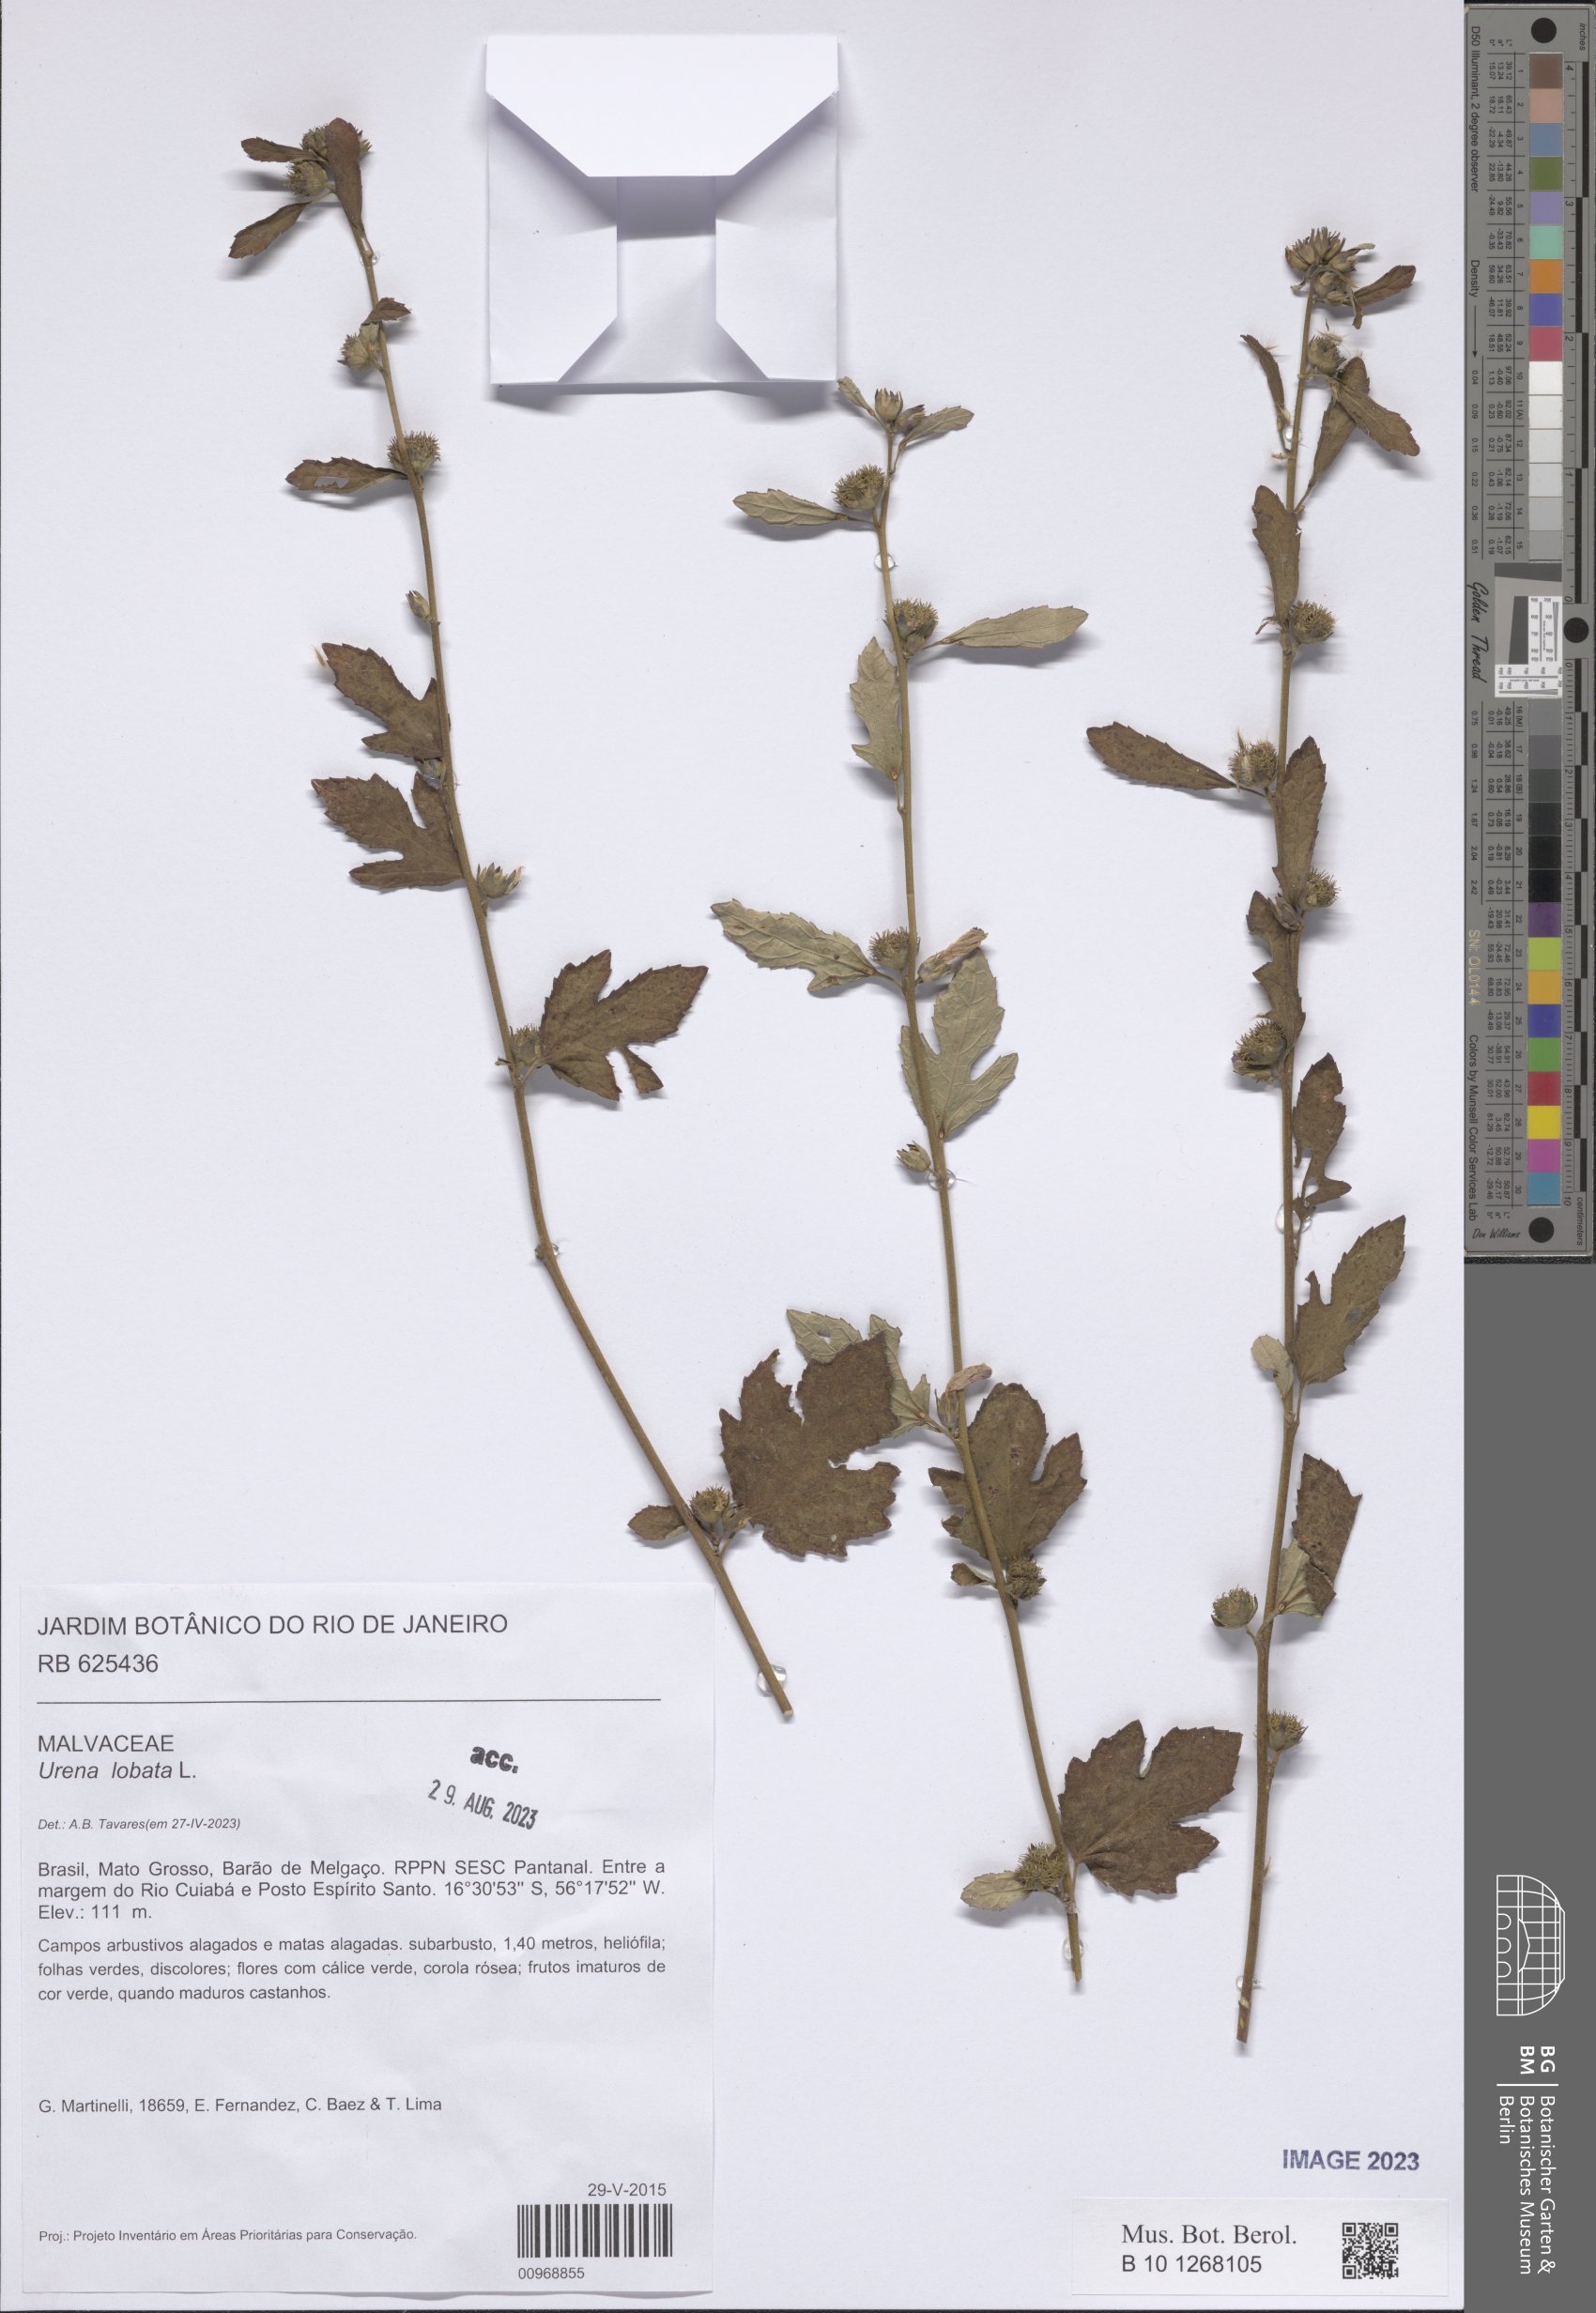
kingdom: Plantae
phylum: Tracheophyta
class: Magnoliopsida
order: Malvales
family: Malvaceae
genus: Urena
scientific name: Urena lobata
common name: Caesarweed
